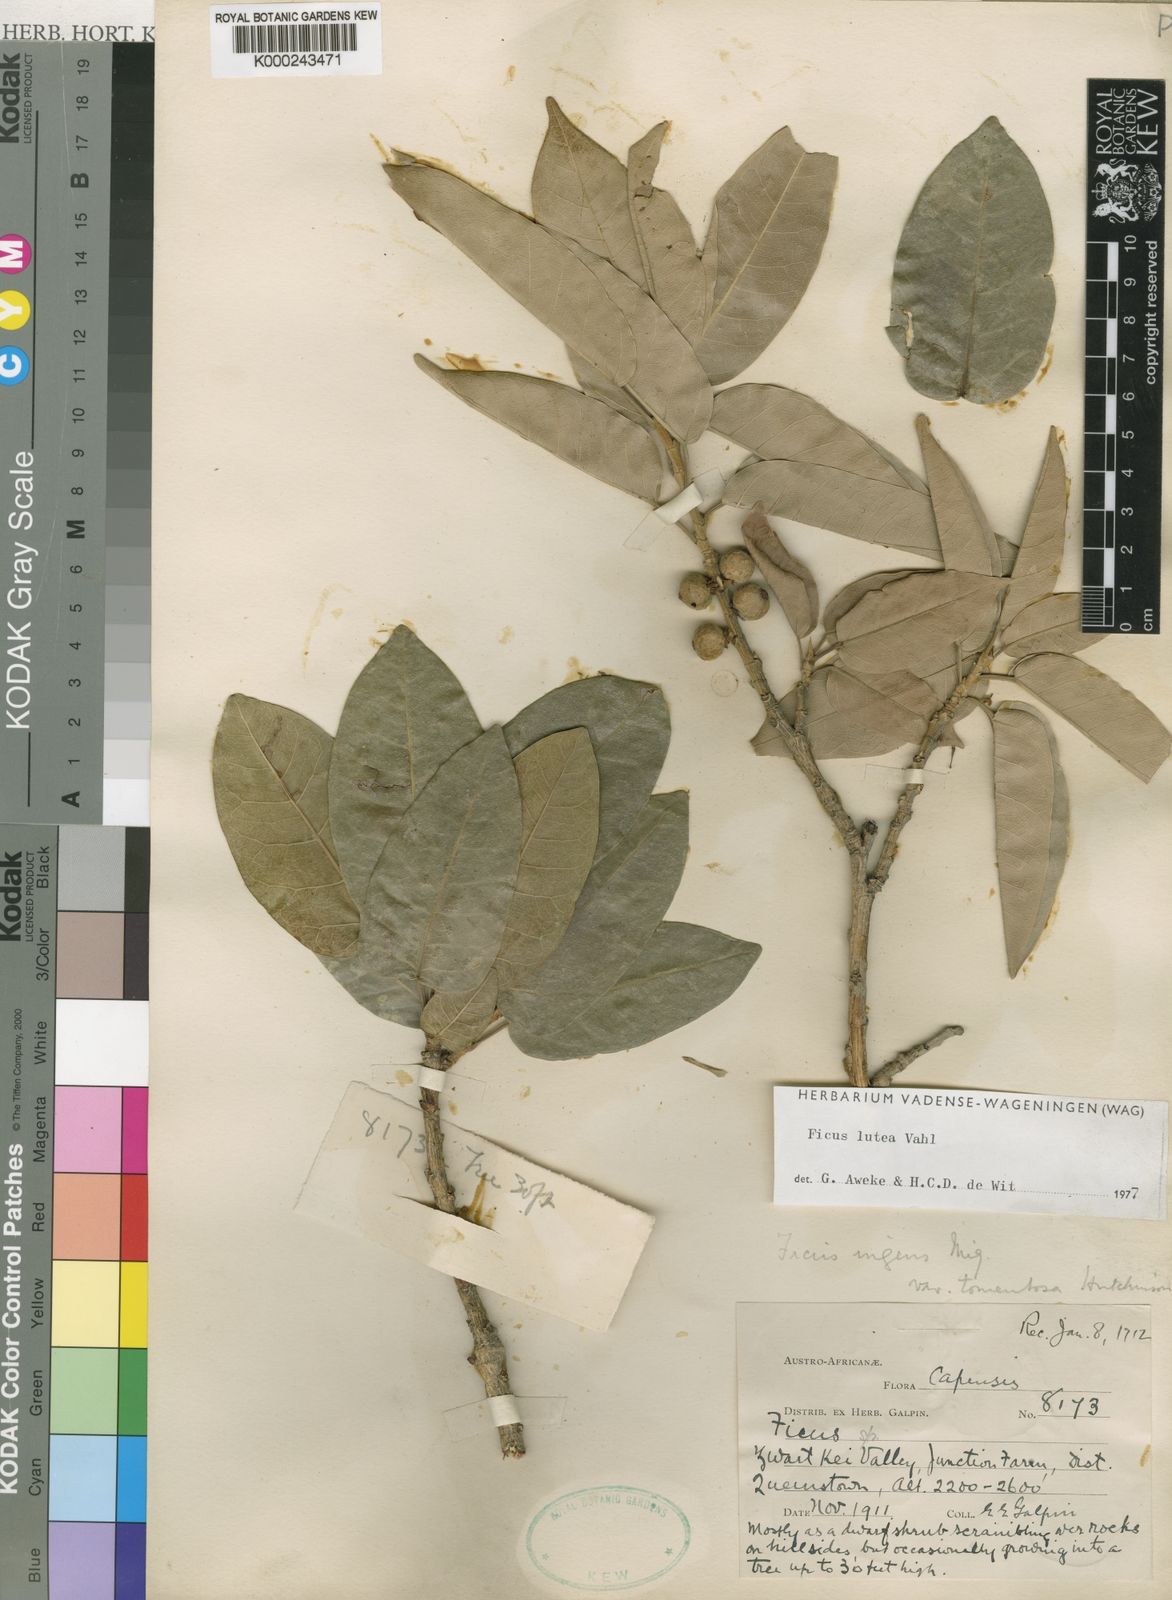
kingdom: Plantae
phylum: Tracheophyta
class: Magnoliopsida
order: Rosales
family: Moraceae
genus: Ficus
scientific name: Ficus ingens
